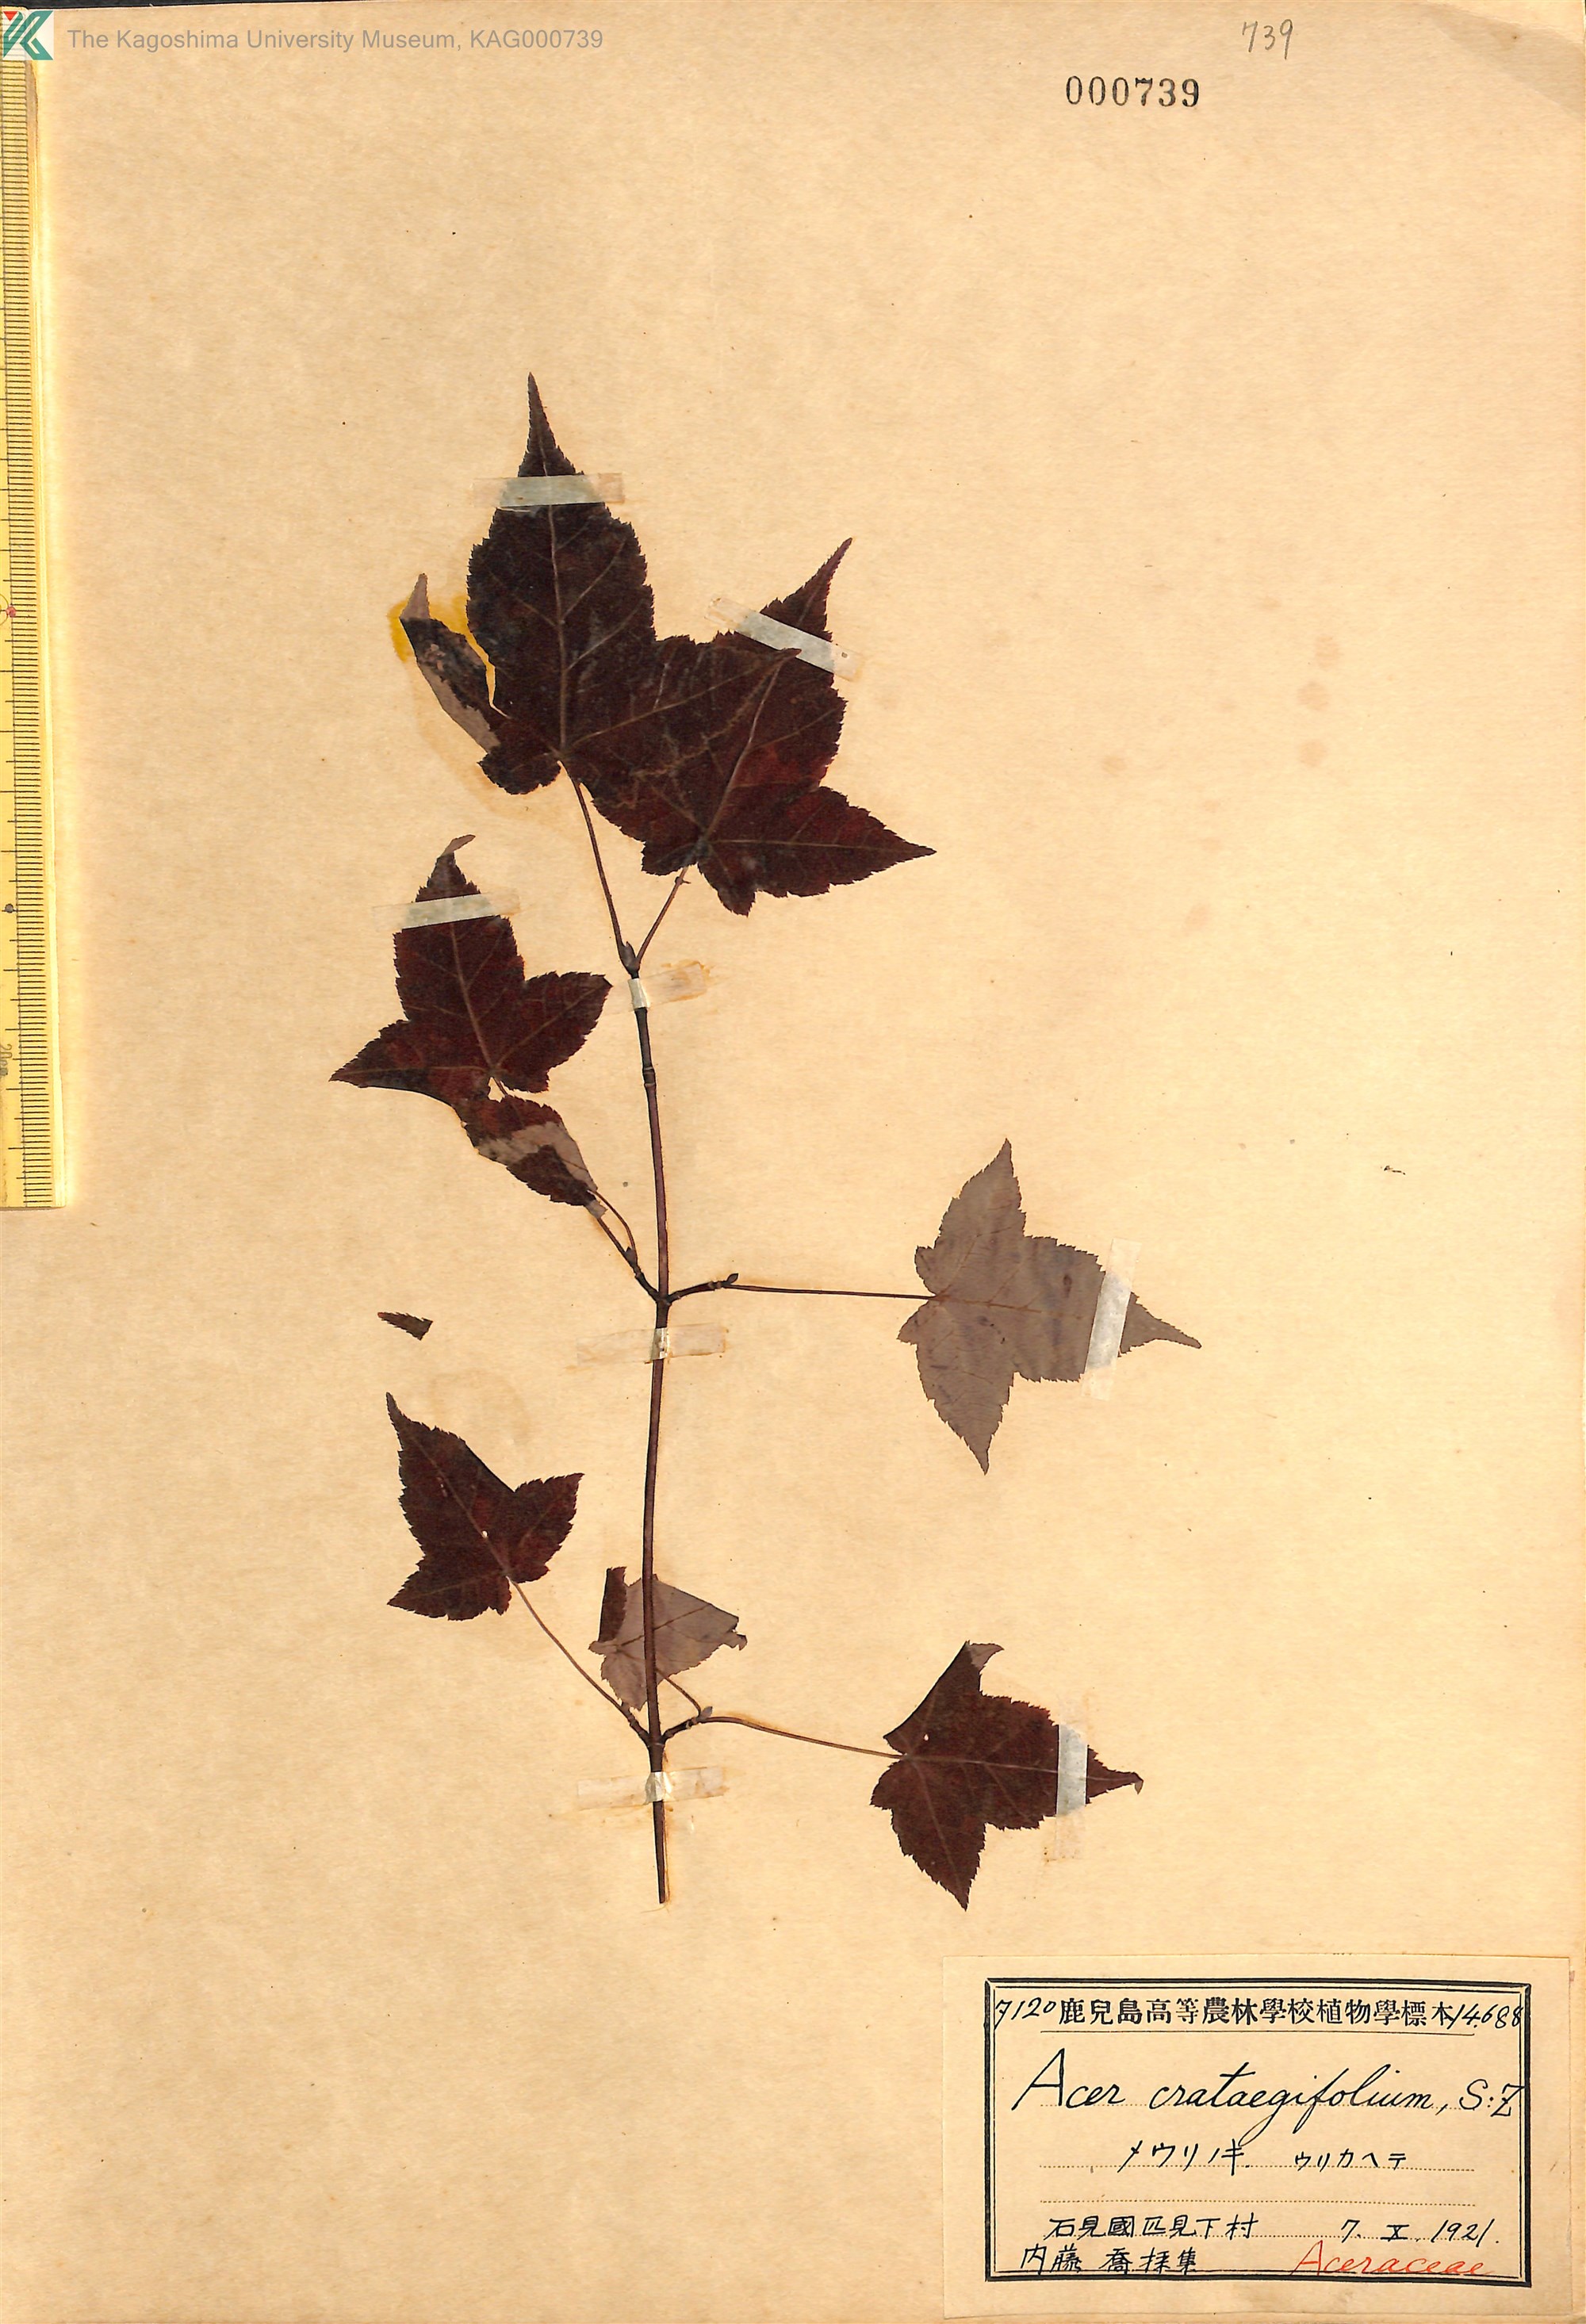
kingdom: Plantae
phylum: Tracheophyta
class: Magnoliopsida
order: Sapindales
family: Sapindaceae
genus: Acer
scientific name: Acer crataegifolium
